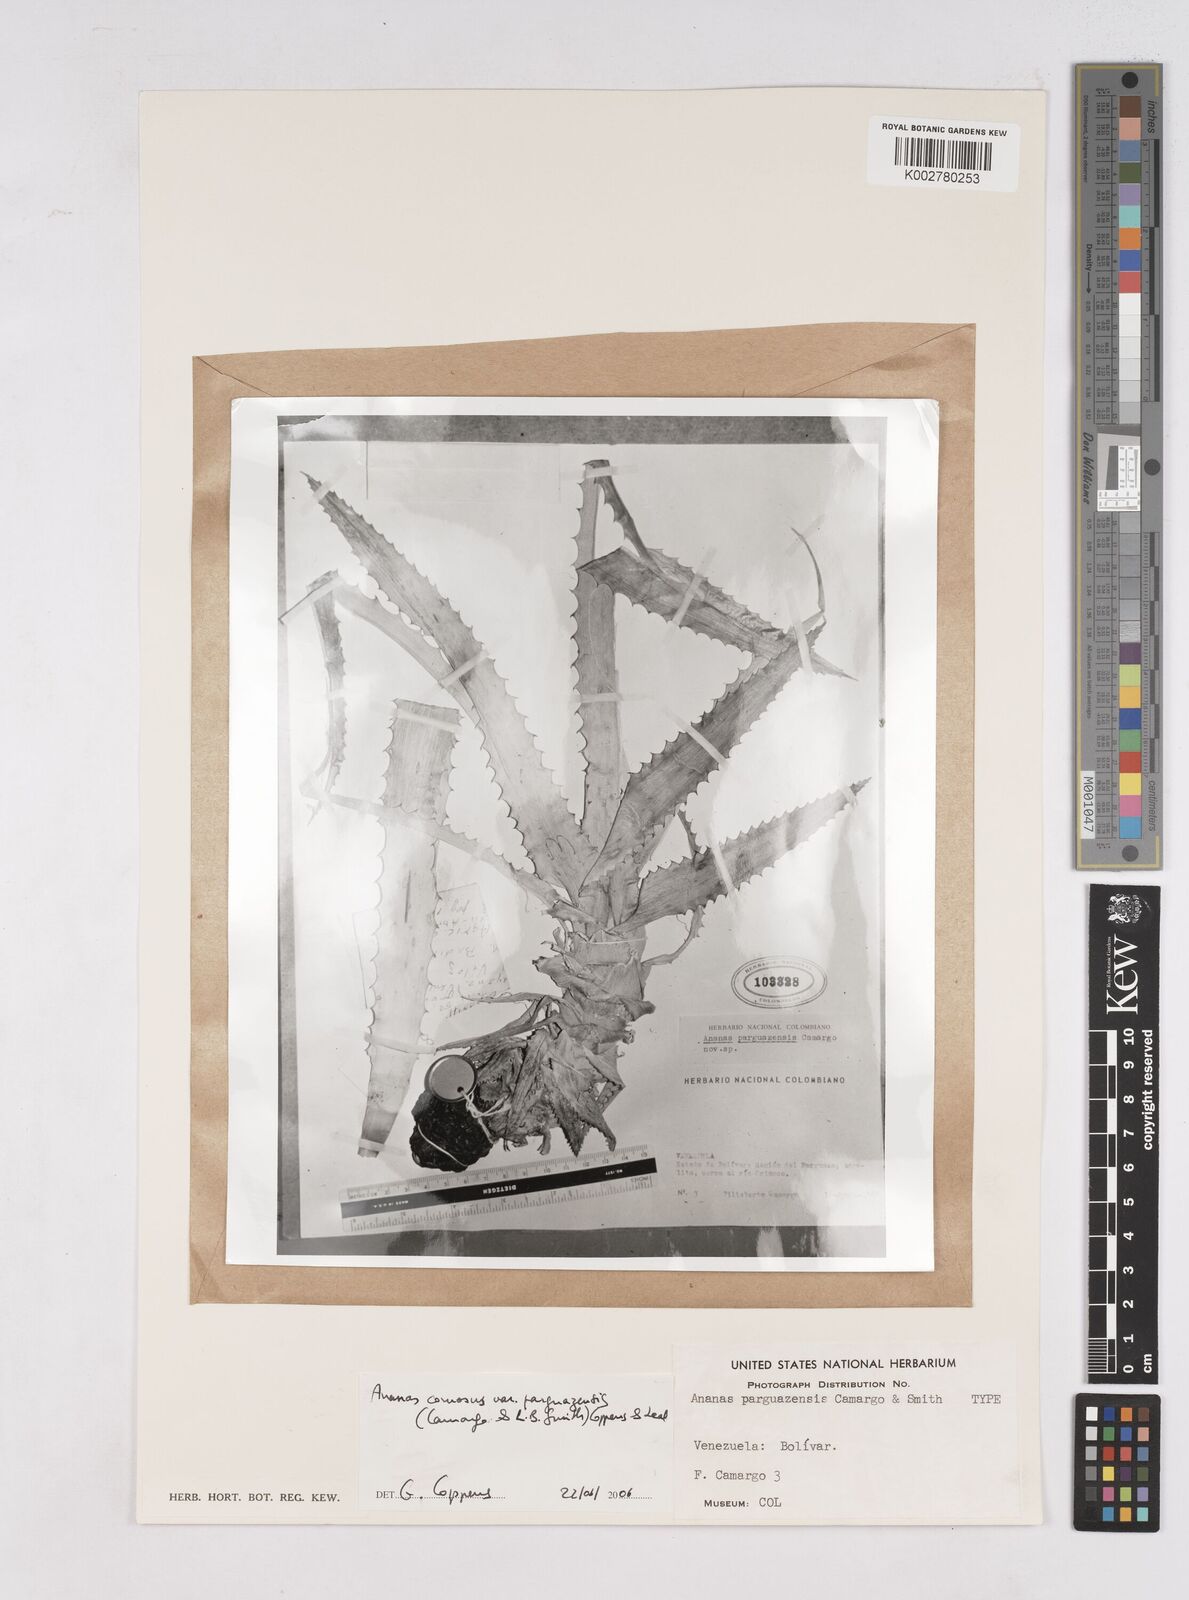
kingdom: Plantae
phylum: Tracheophyta
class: Liliopsida
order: Poales
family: Bromeliaceae
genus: Ananas
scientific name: Ananas comosus
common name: Pineapple
